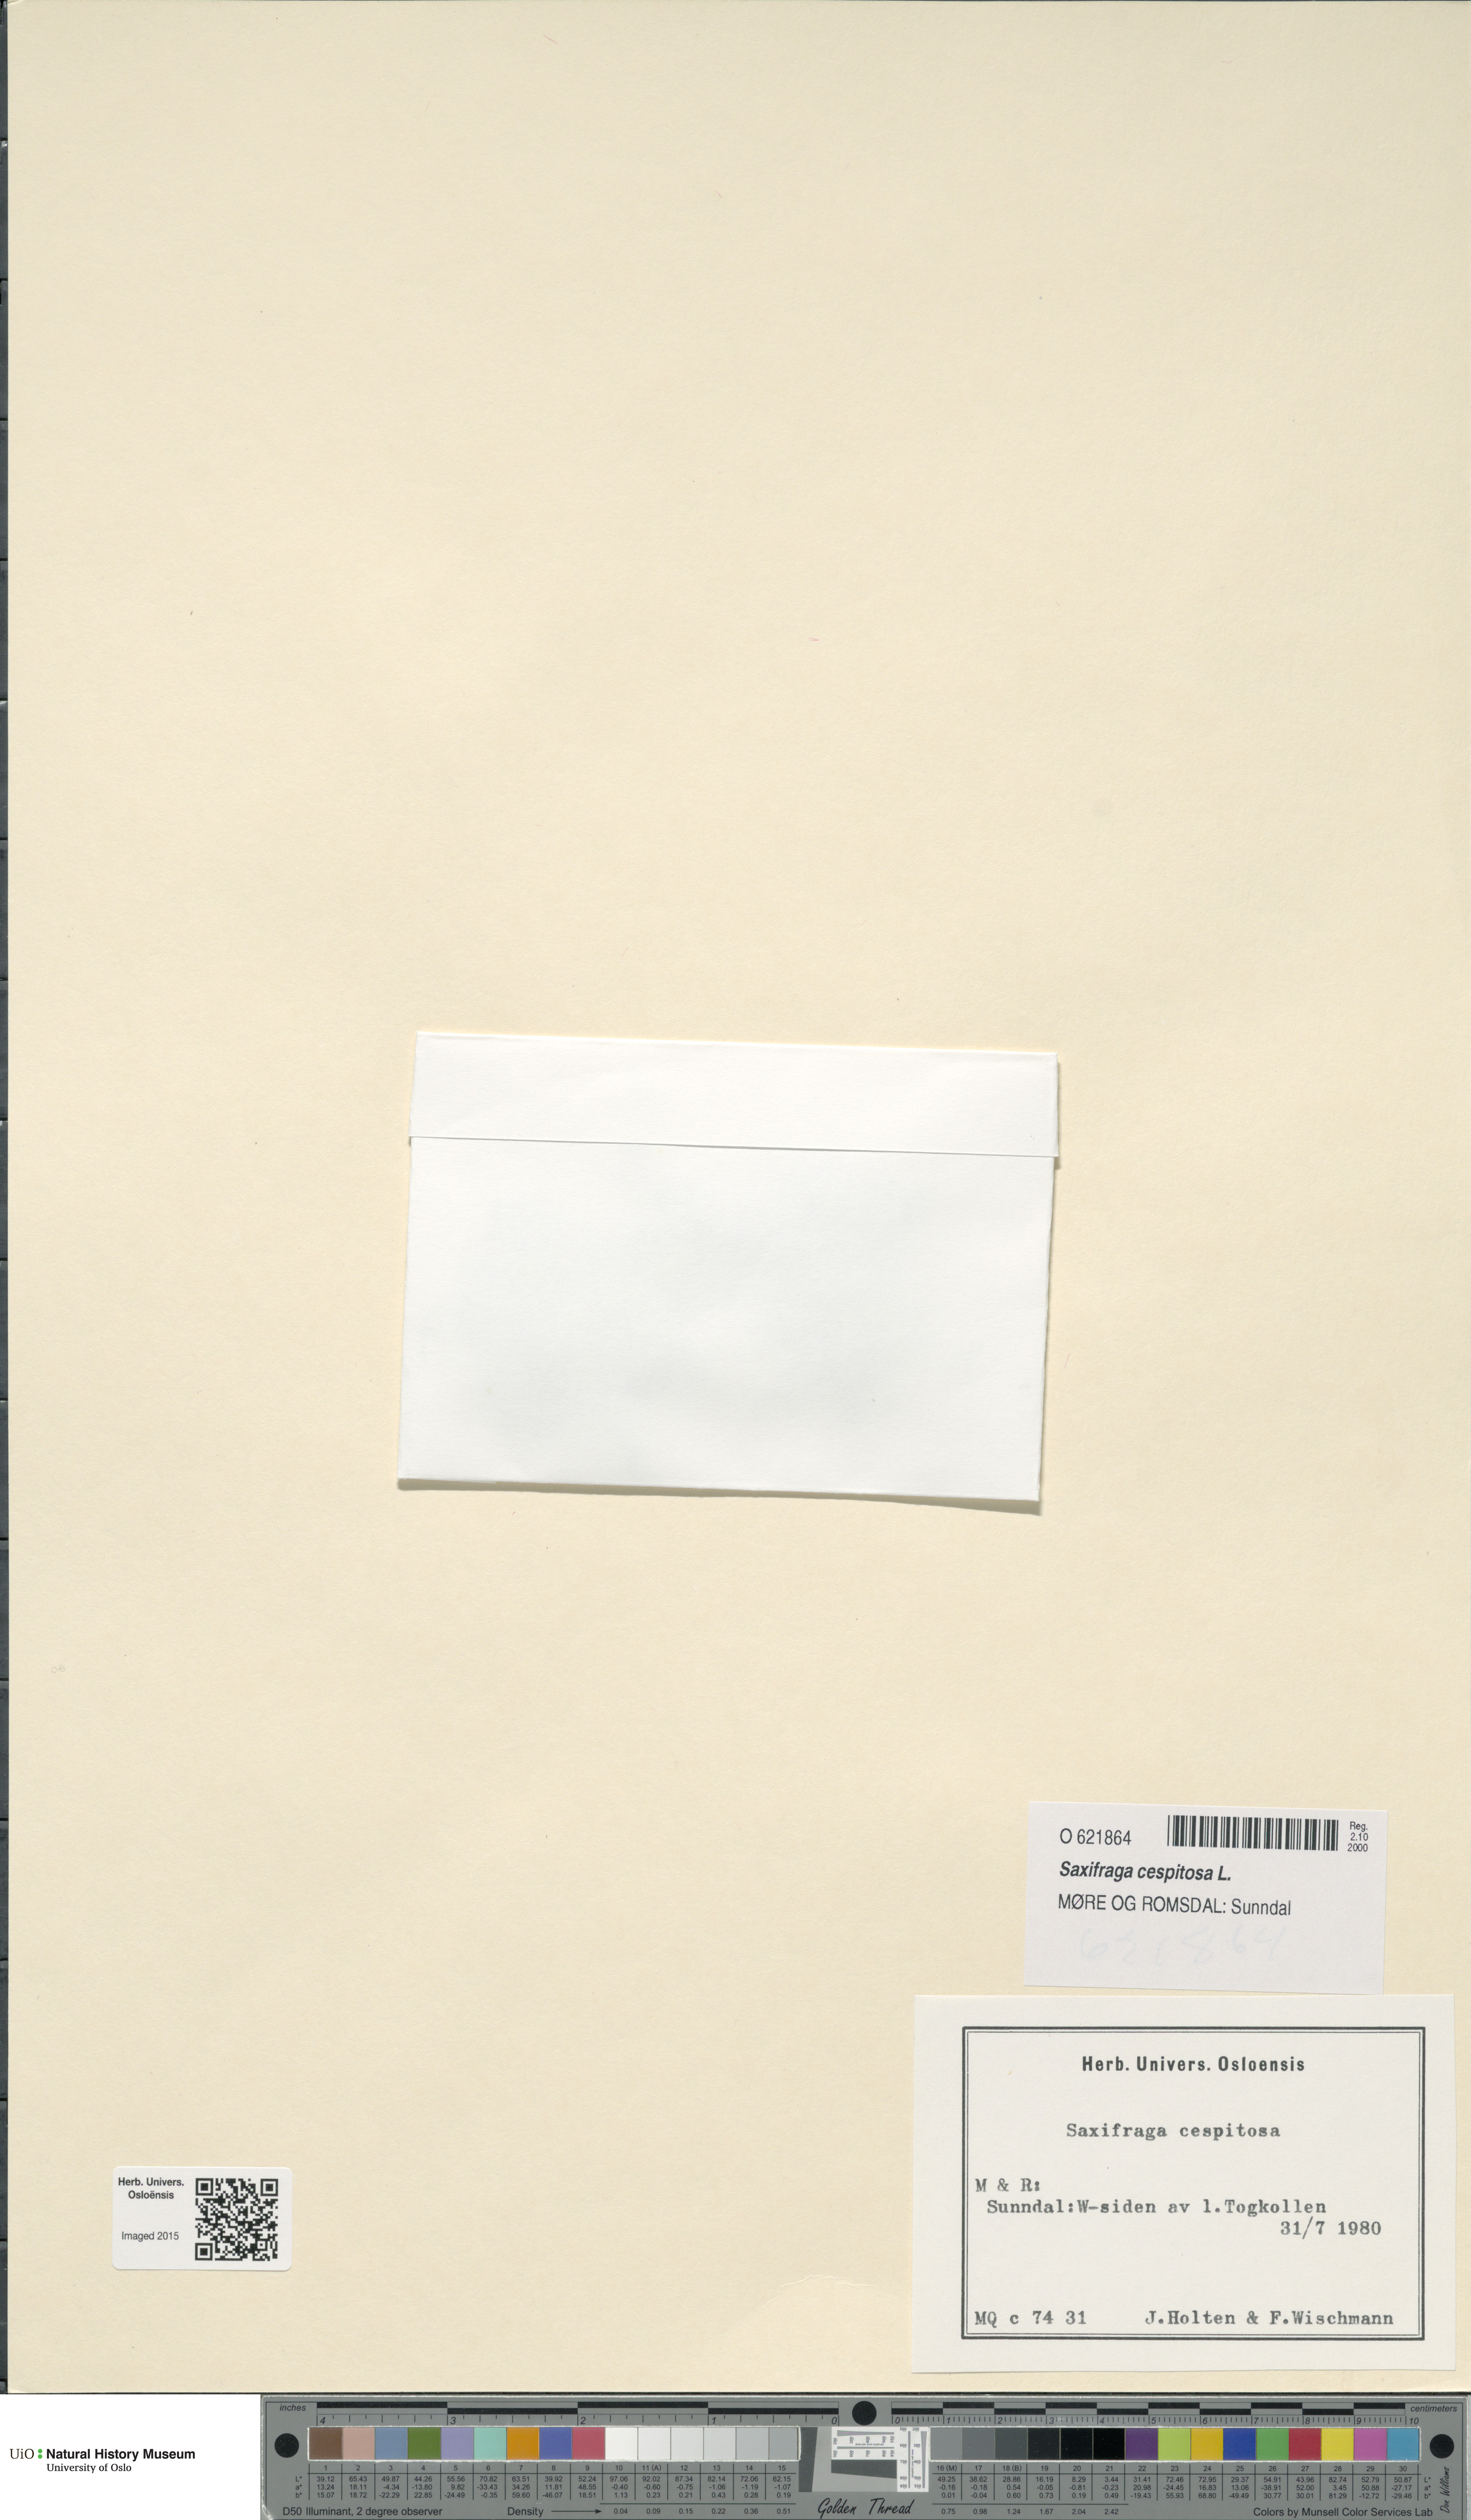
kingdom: Plantae
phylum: Tracheophyta
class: Magnoliopsida
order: Saxifragales
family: Saxifragaceae
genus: Saxifraga
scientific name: Saxifraga cespitosa
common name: Tufted saxifrage
